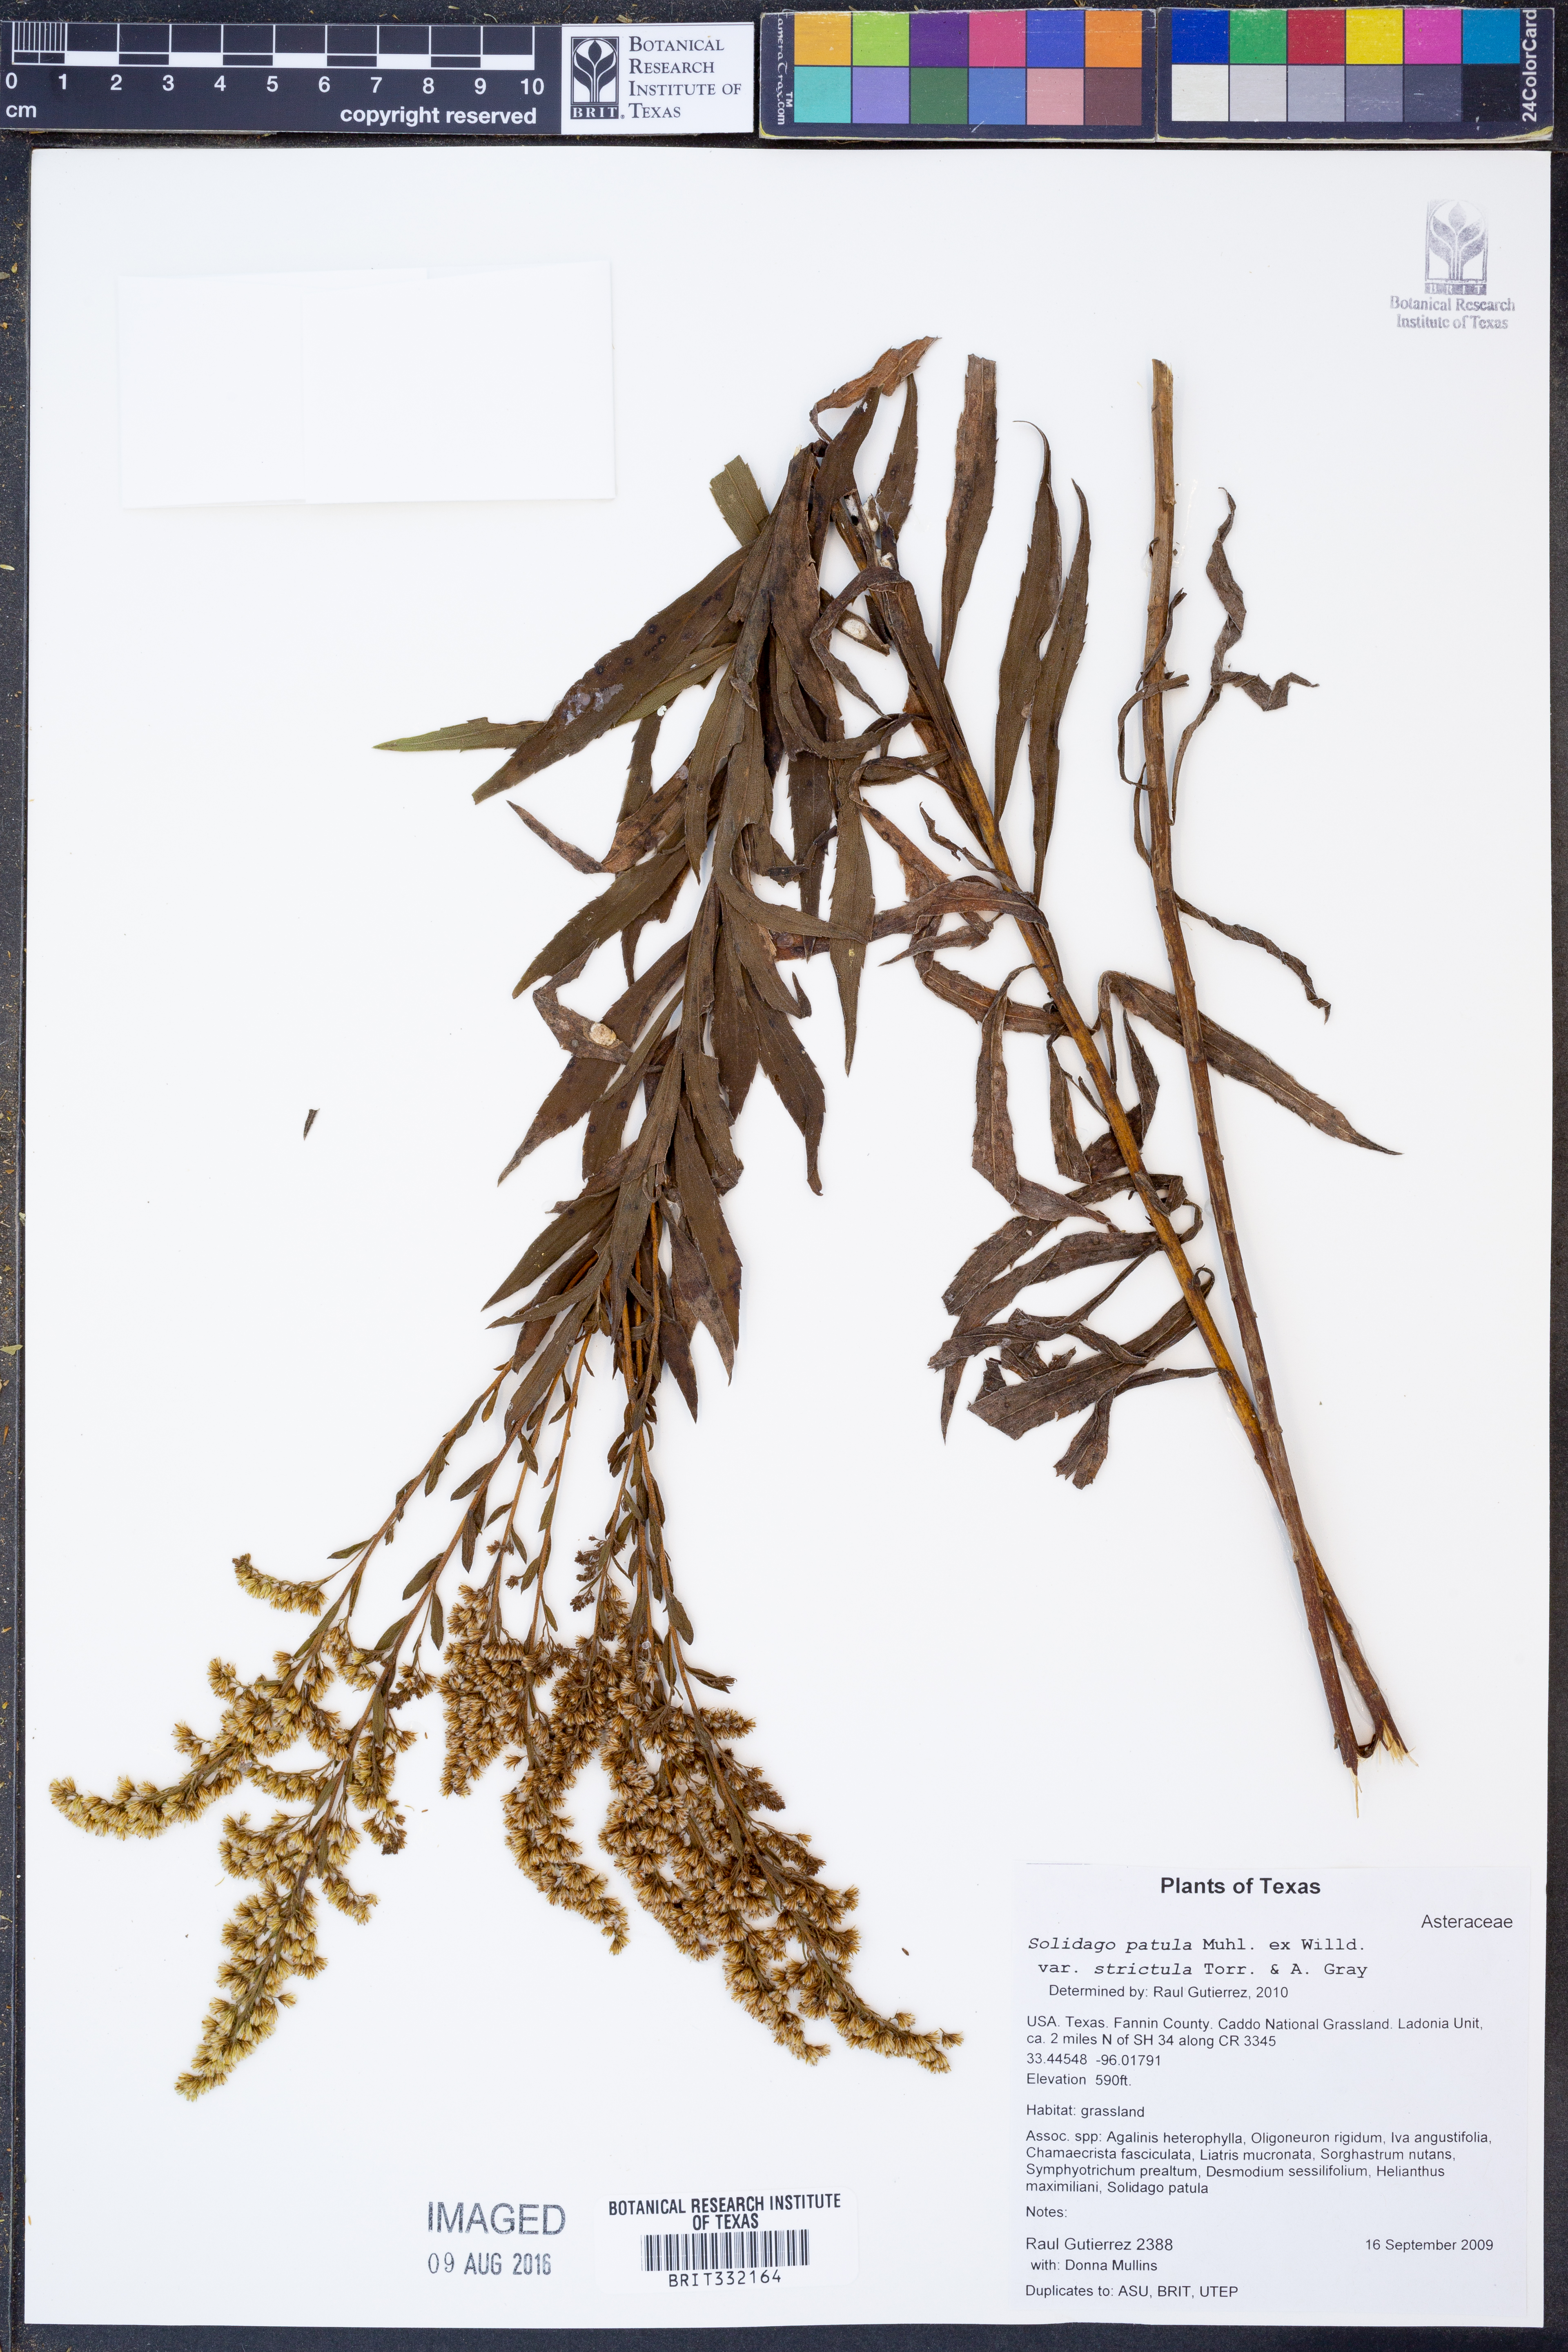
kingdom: Plantae
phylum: Tracheophyta
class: Magnoliopsida
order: Asterales
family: Asteraceae
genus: Solidago
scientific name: Solidago salicina
